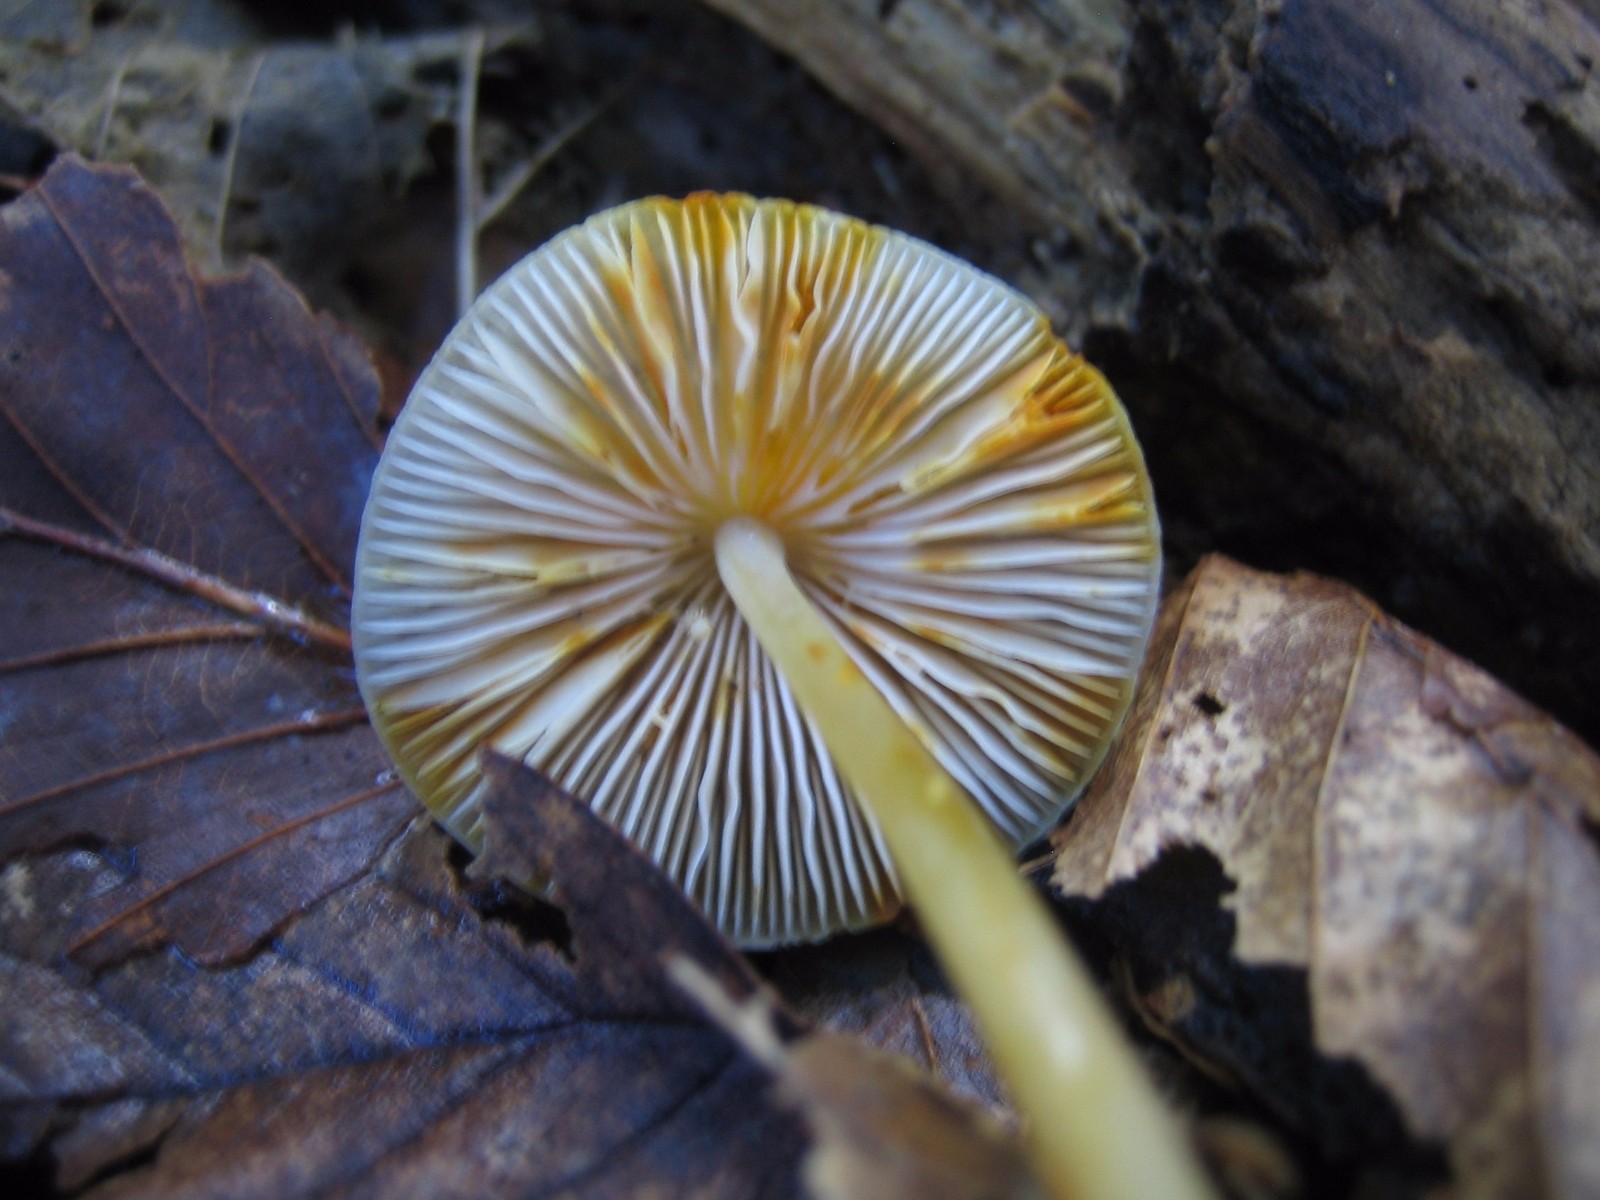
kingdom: Fungi
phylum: Basidiomycota
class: Agaricomycetes
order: Agaricales
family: Mycenaceae
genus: Mycena
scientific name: Mycena crocata
